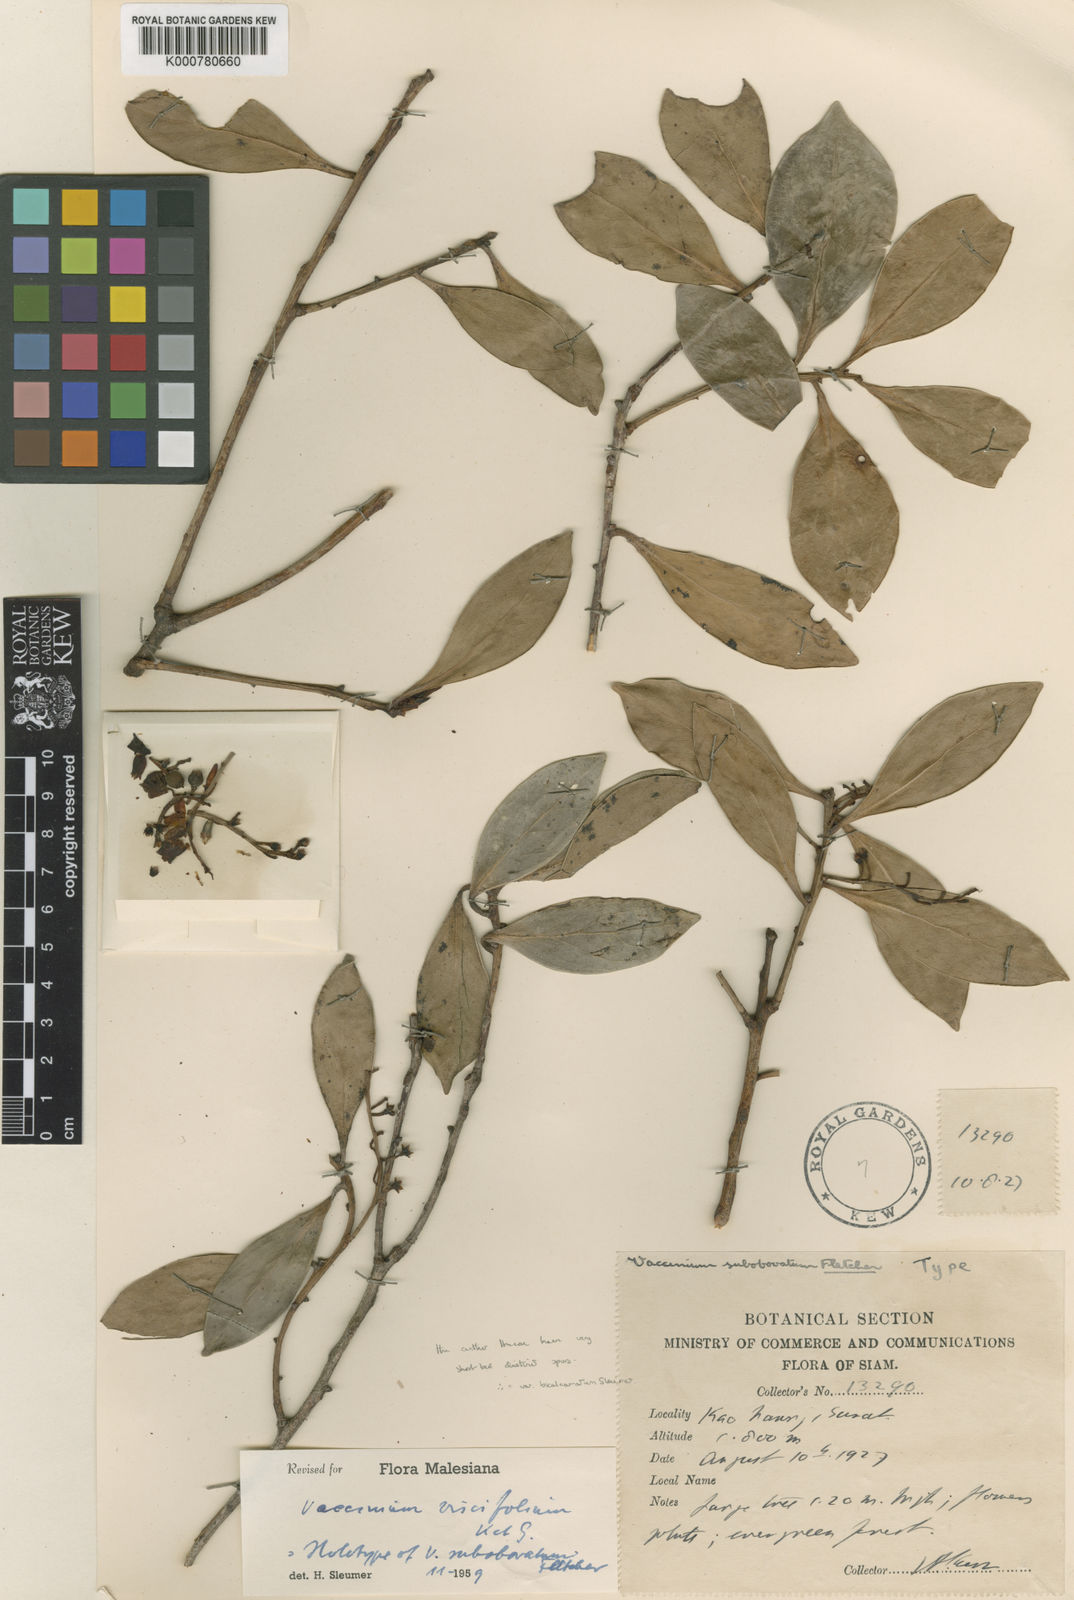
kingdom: Plantae
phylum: Tracheophyta
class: Magnoliopsida
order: Ericales
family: Ericaceae
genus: Vaccinium
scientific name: Vaccinium viscifolium
